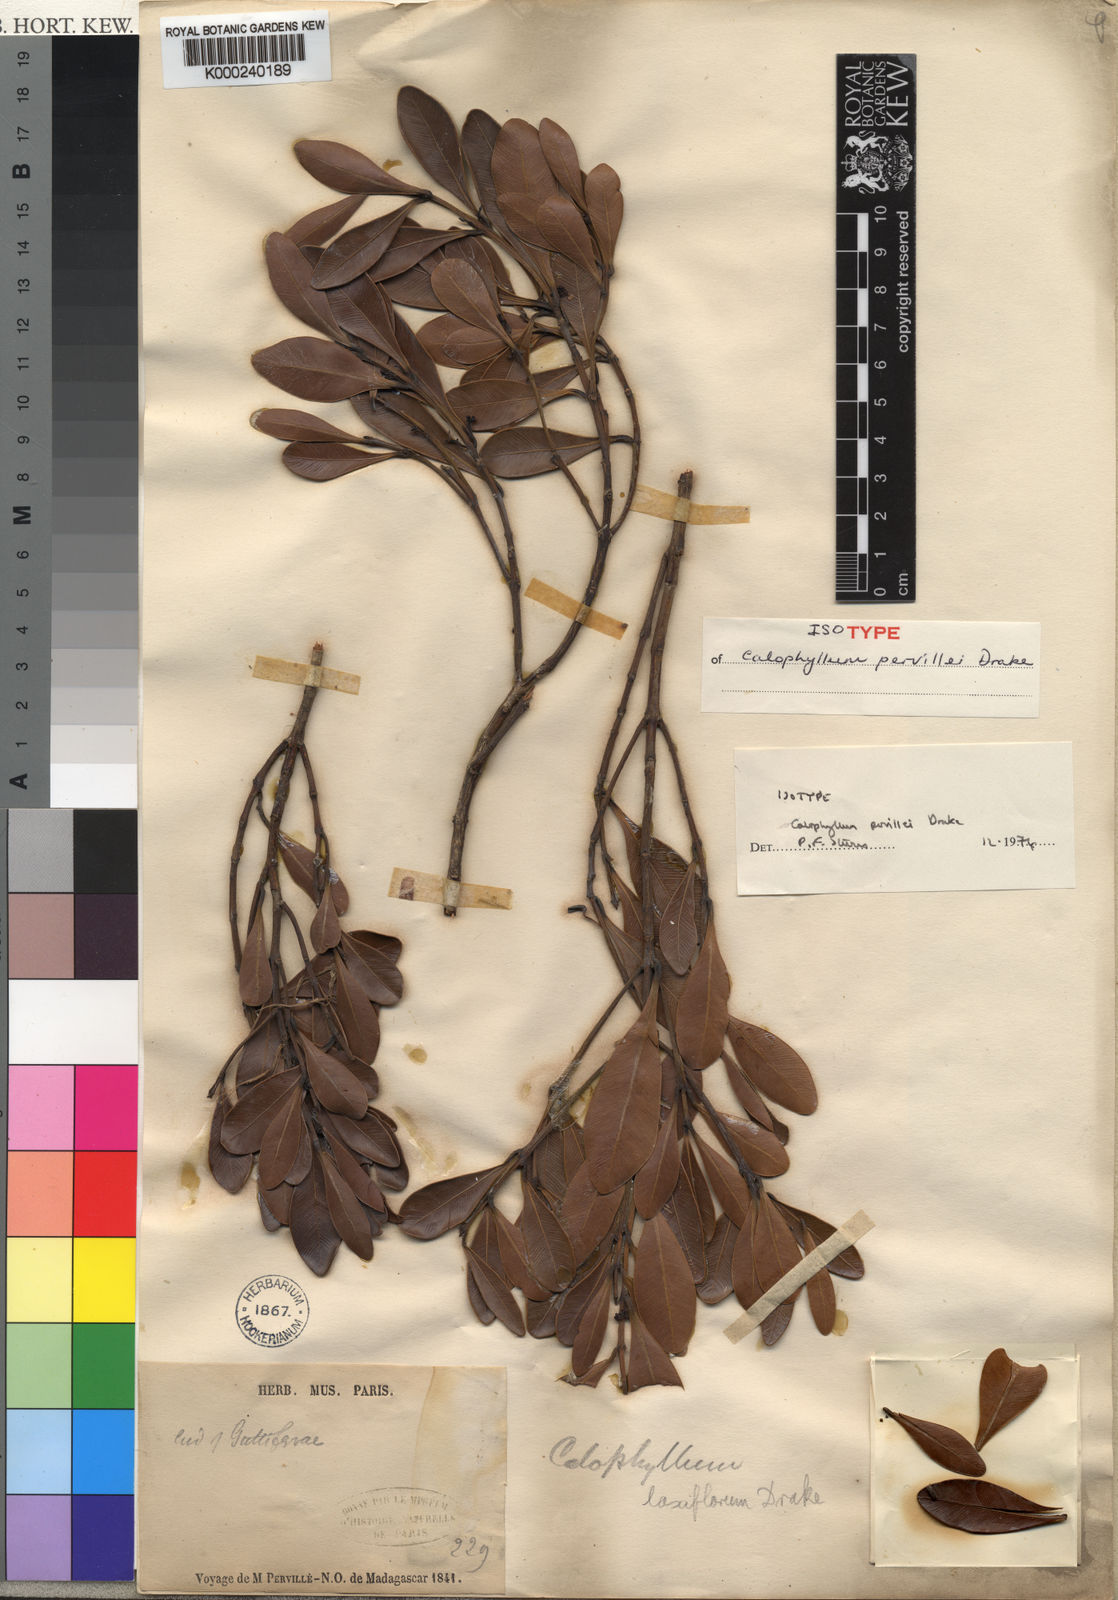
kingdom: Plantae
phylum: Tracheophyta
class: Magnoliopsida
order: Malpighiales
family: Calophyllaceae
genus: Calophyllum
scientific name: Calophyllum laxiflorum
